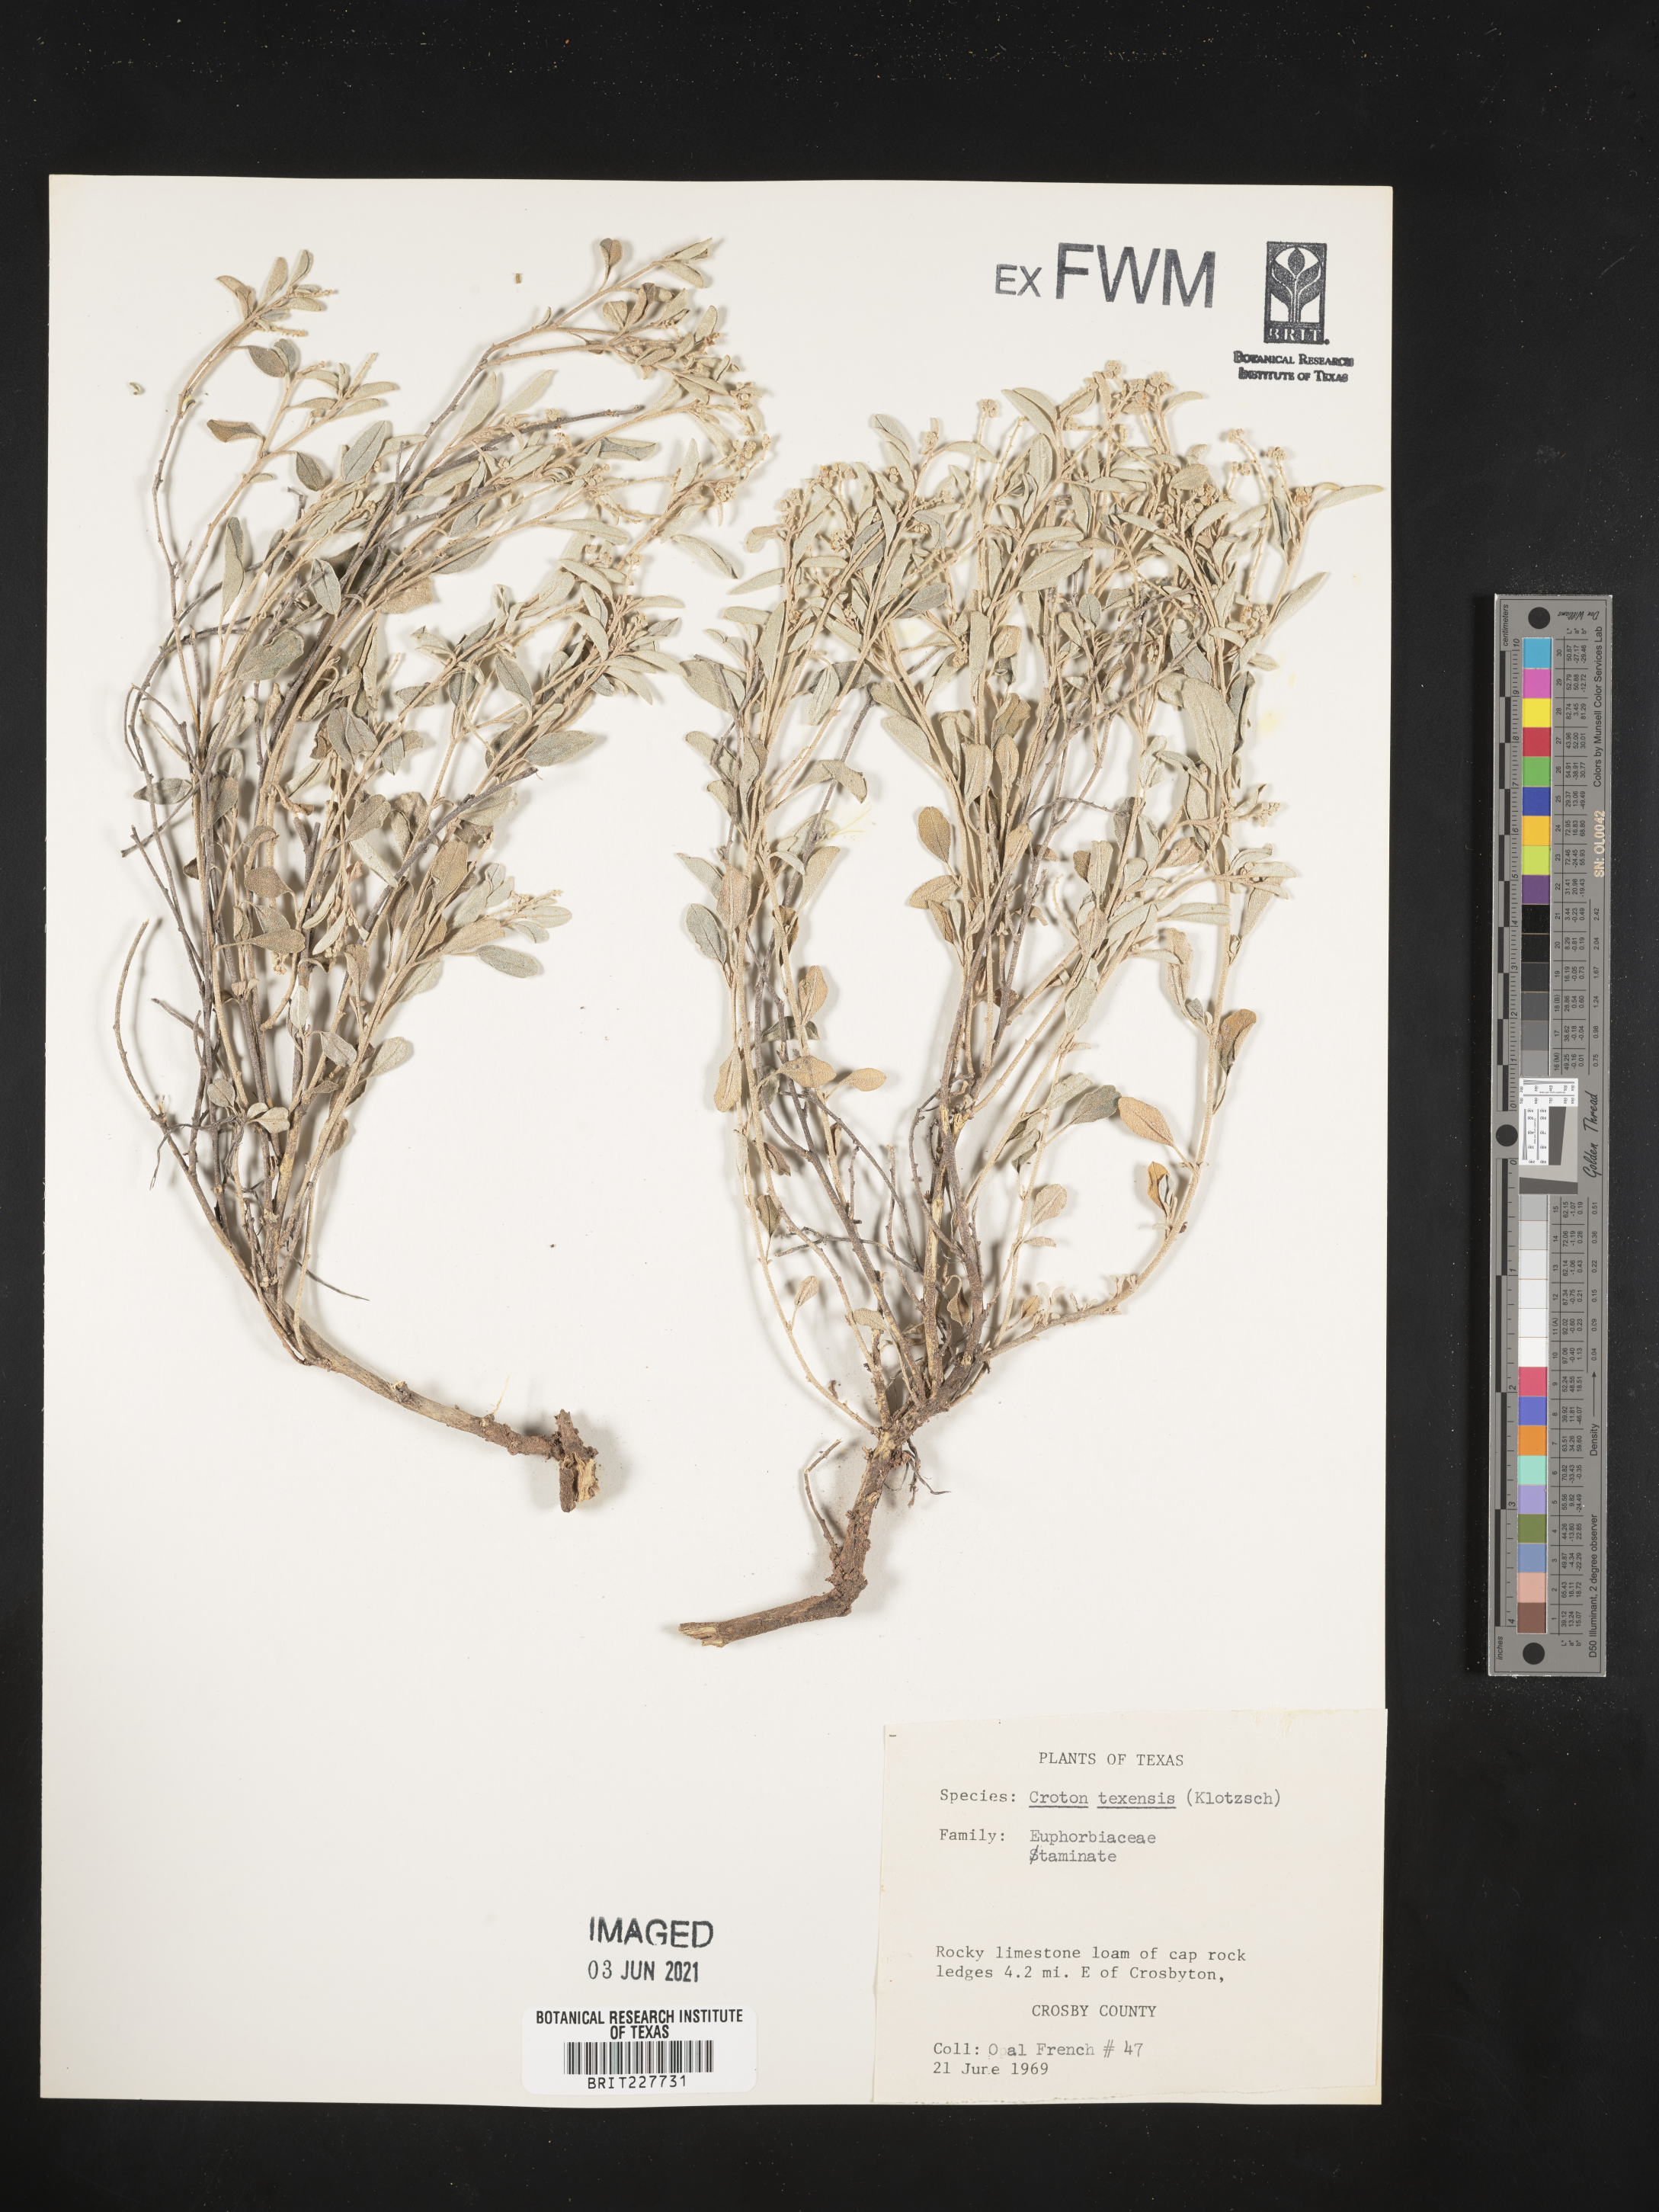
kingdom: Plantae
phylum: Tracheophyta
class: Magnoliopsida
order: Malpighiales
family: Euphorbiaceae
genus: Croton
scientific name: Croton texensis
